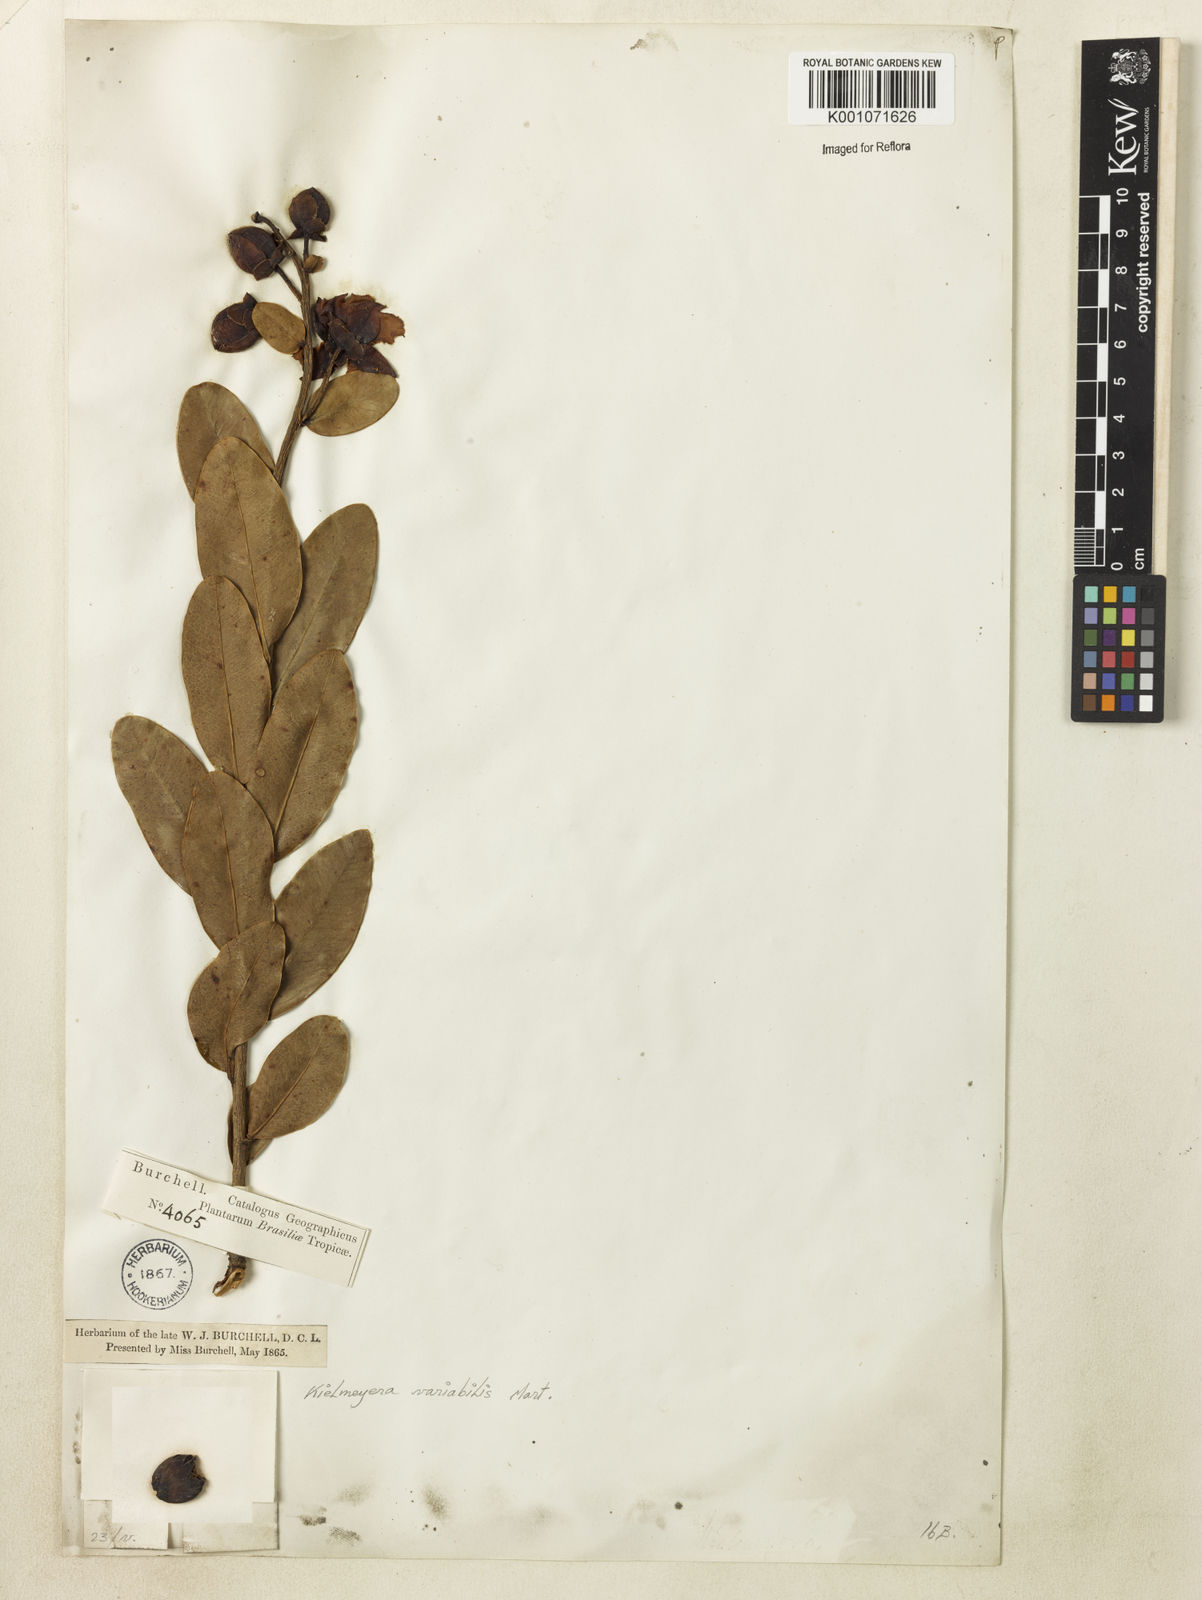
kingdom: Plantae
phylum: Tracheophyta
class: Magnoliopsida
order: Malpighiales
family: Calophyllaceae
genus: Kielmeyera
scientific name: Kielmeyera variabilis
